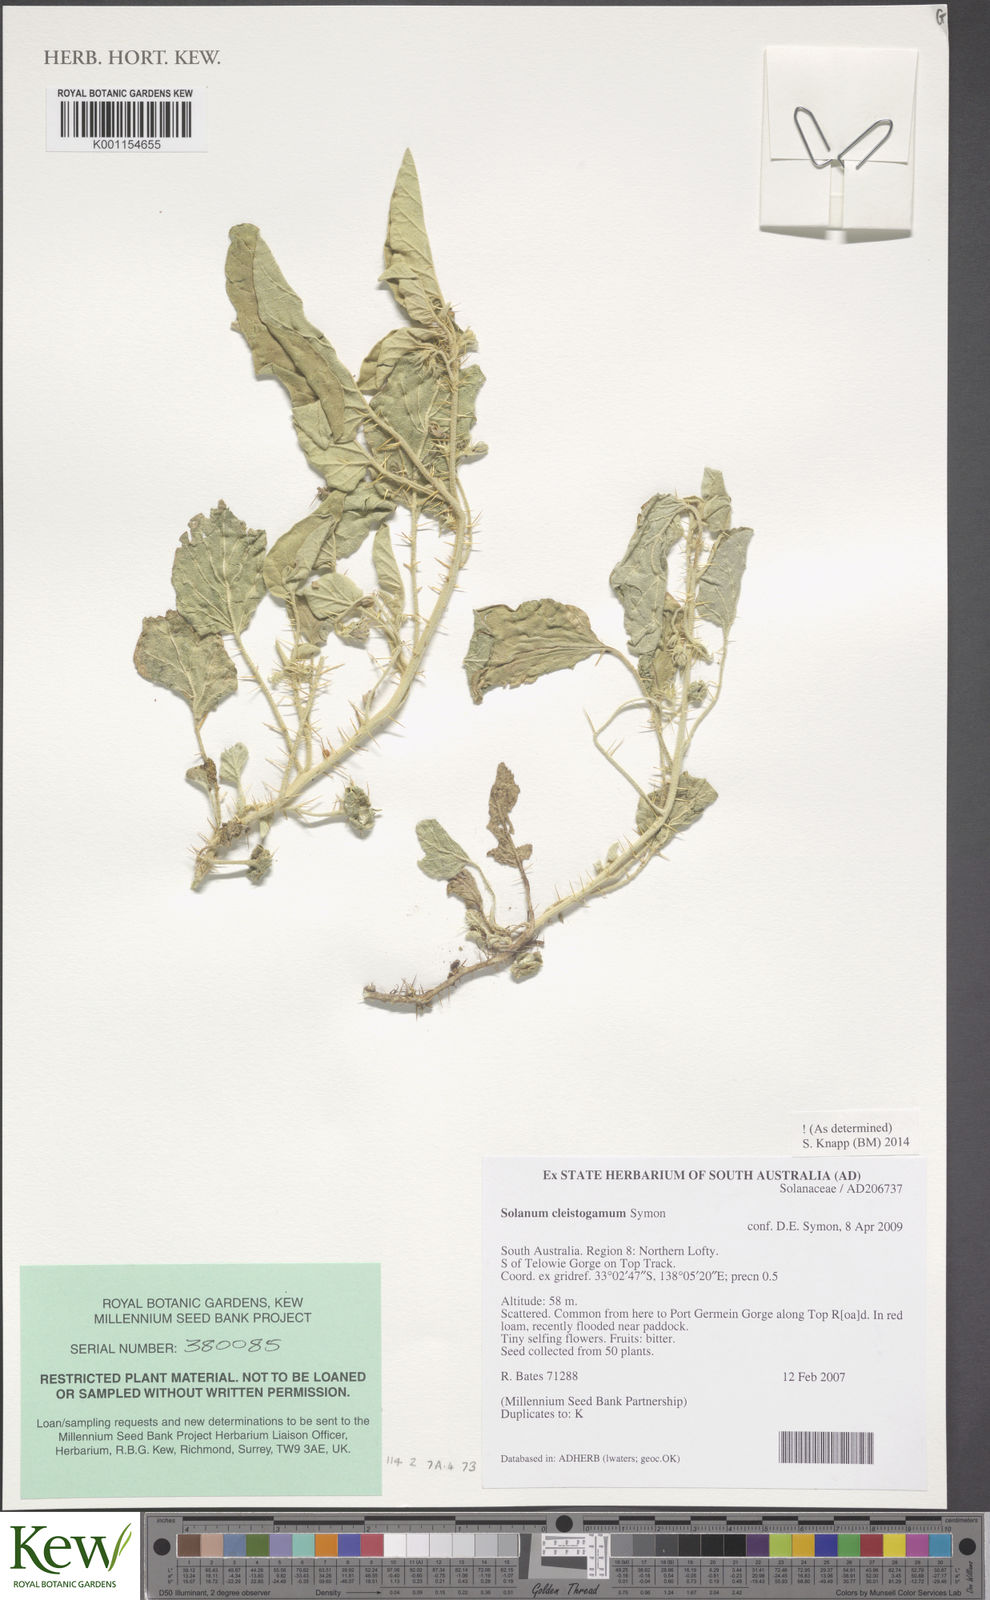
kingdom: Plantae
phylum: Tracheophyta
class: Magnoliopsida
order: Solanales
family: Solanaceae
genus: Solanum
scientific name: Solanum cleistogamum
